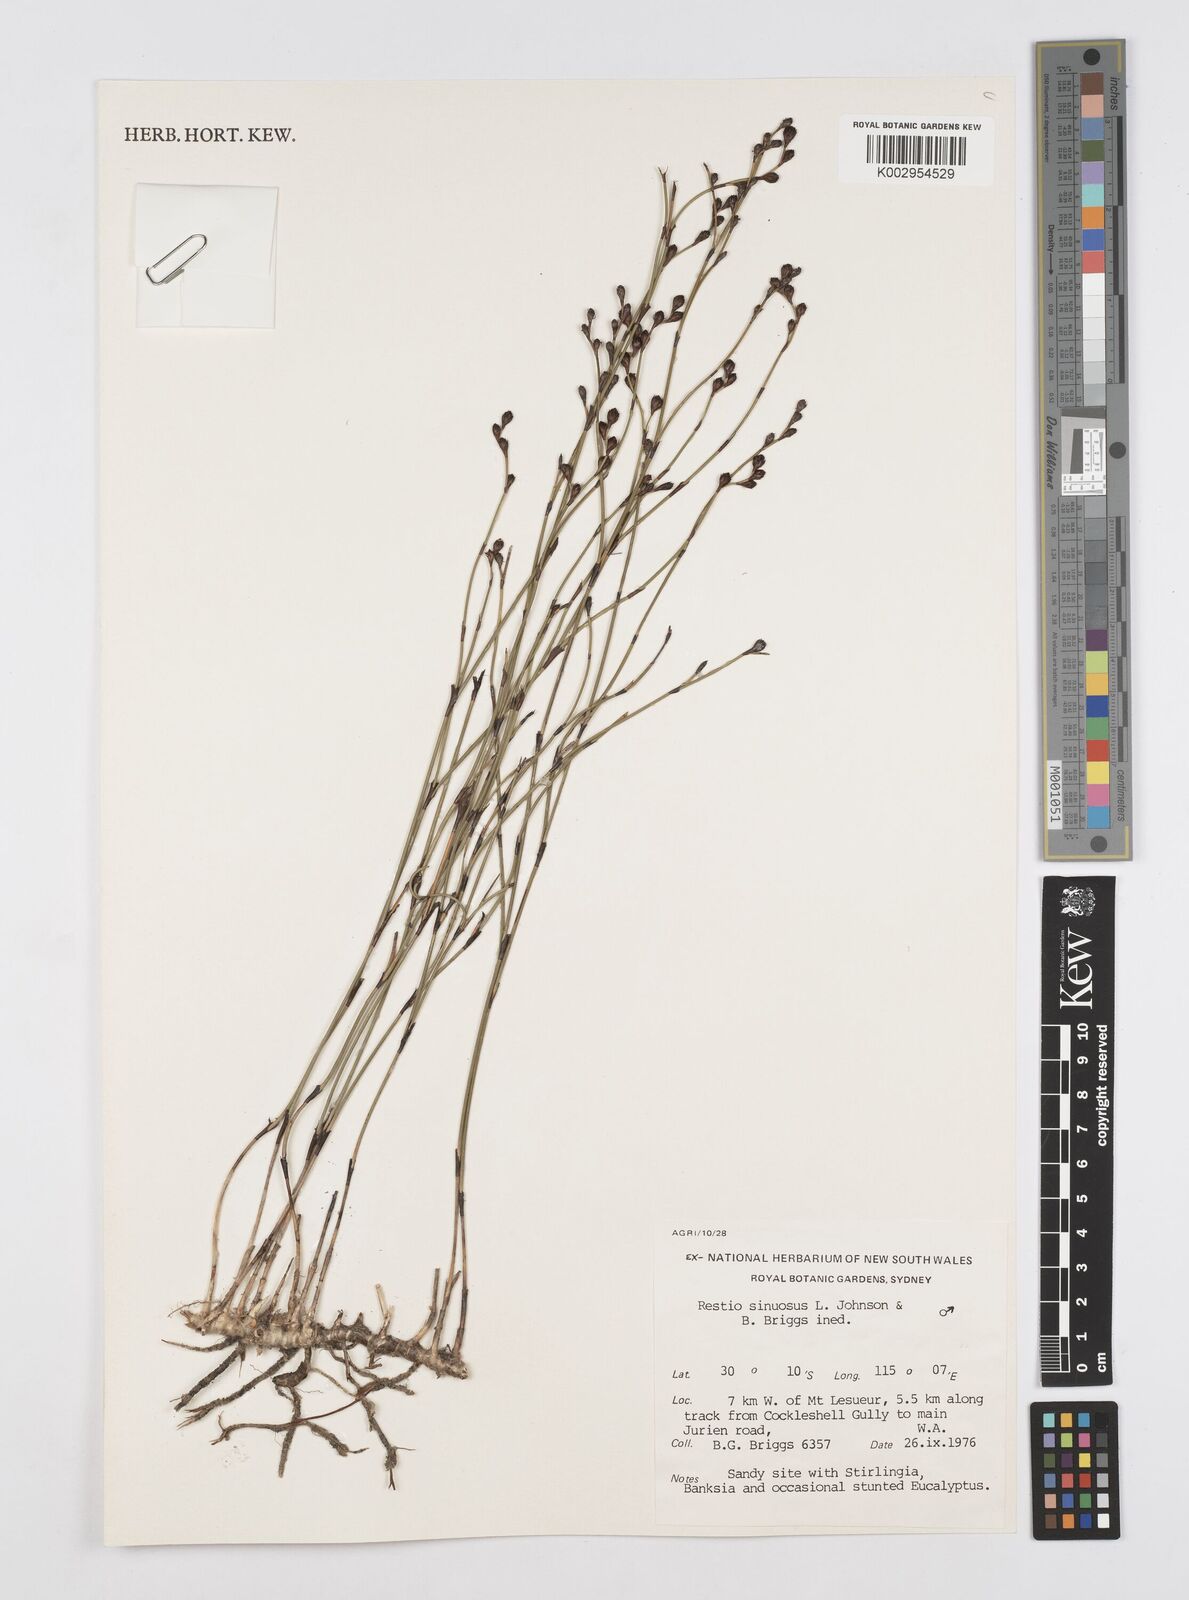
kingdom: Plantae
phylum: Tracheophyta
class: Liliopsida
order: Poales
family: Restionaceae
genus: Chordifex
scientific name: Chordifex sinuosus
